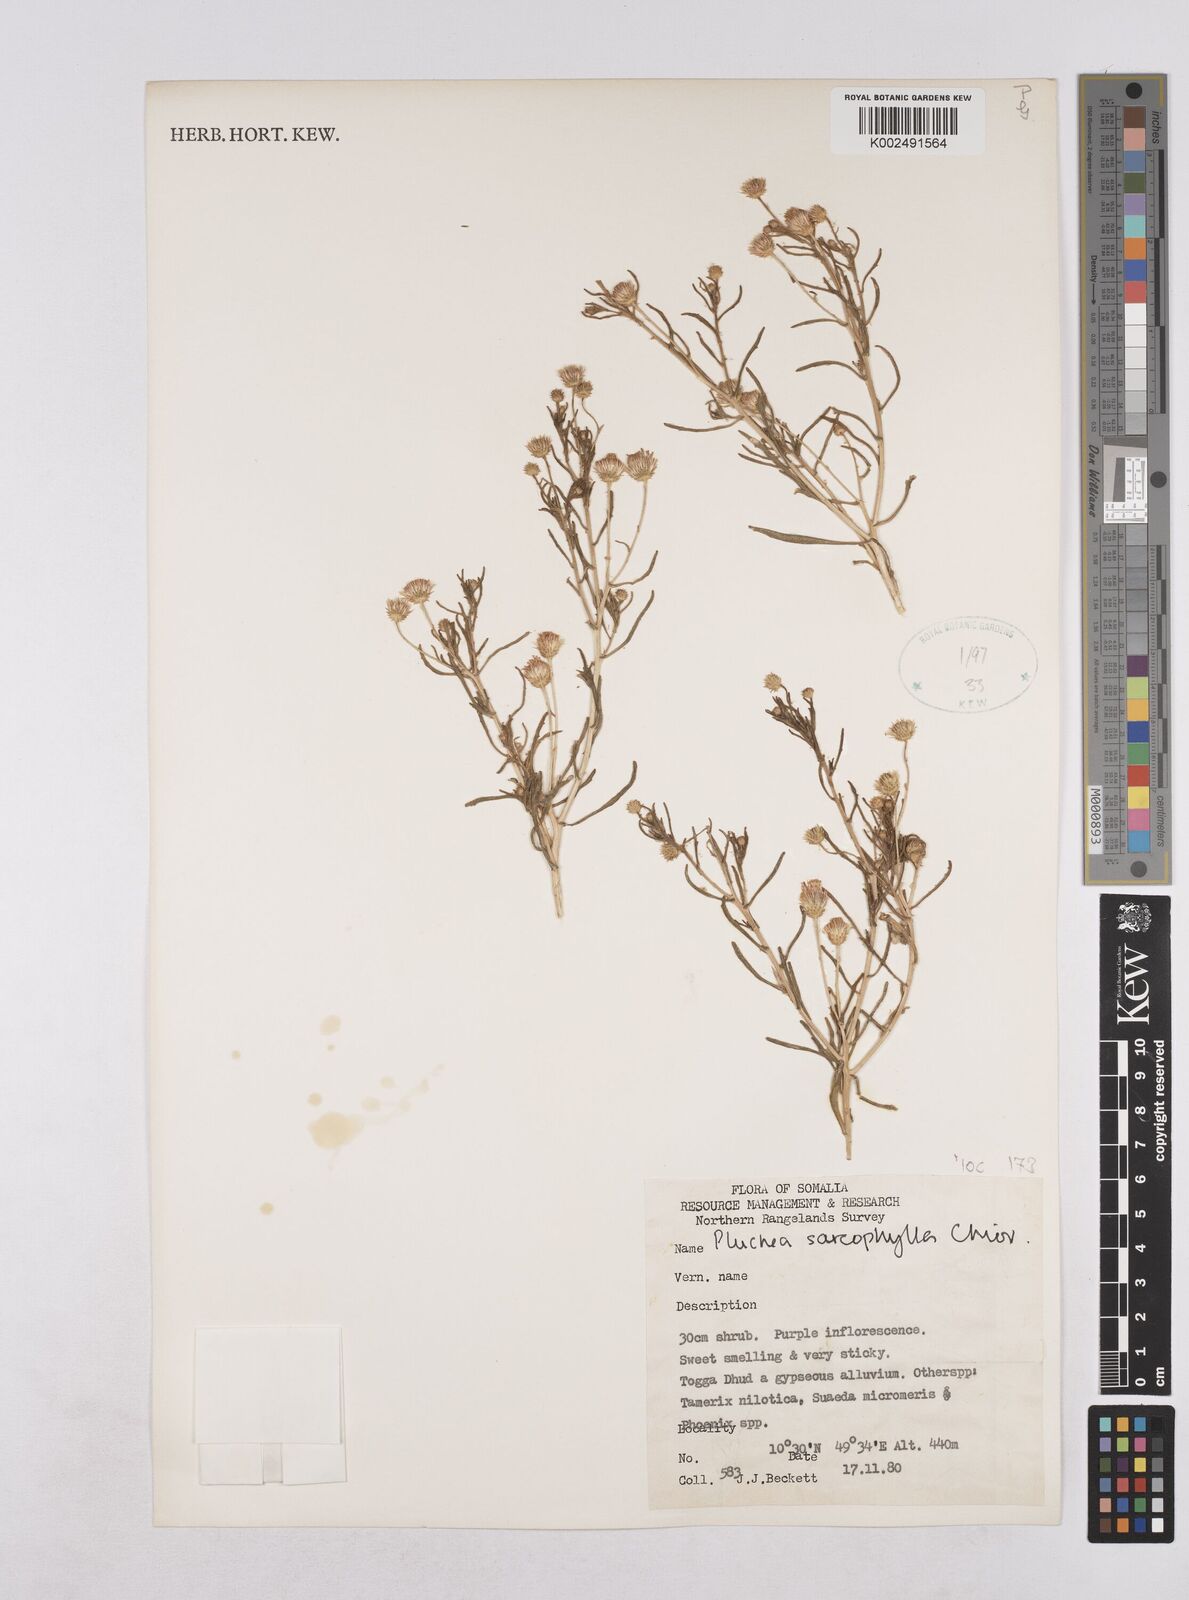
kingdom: Plantae
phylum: Tracheophyta
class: Magnoliopsida
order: Asterales
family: Asteraceae
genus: Pluchea
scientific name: Pluchea sarcophylla
